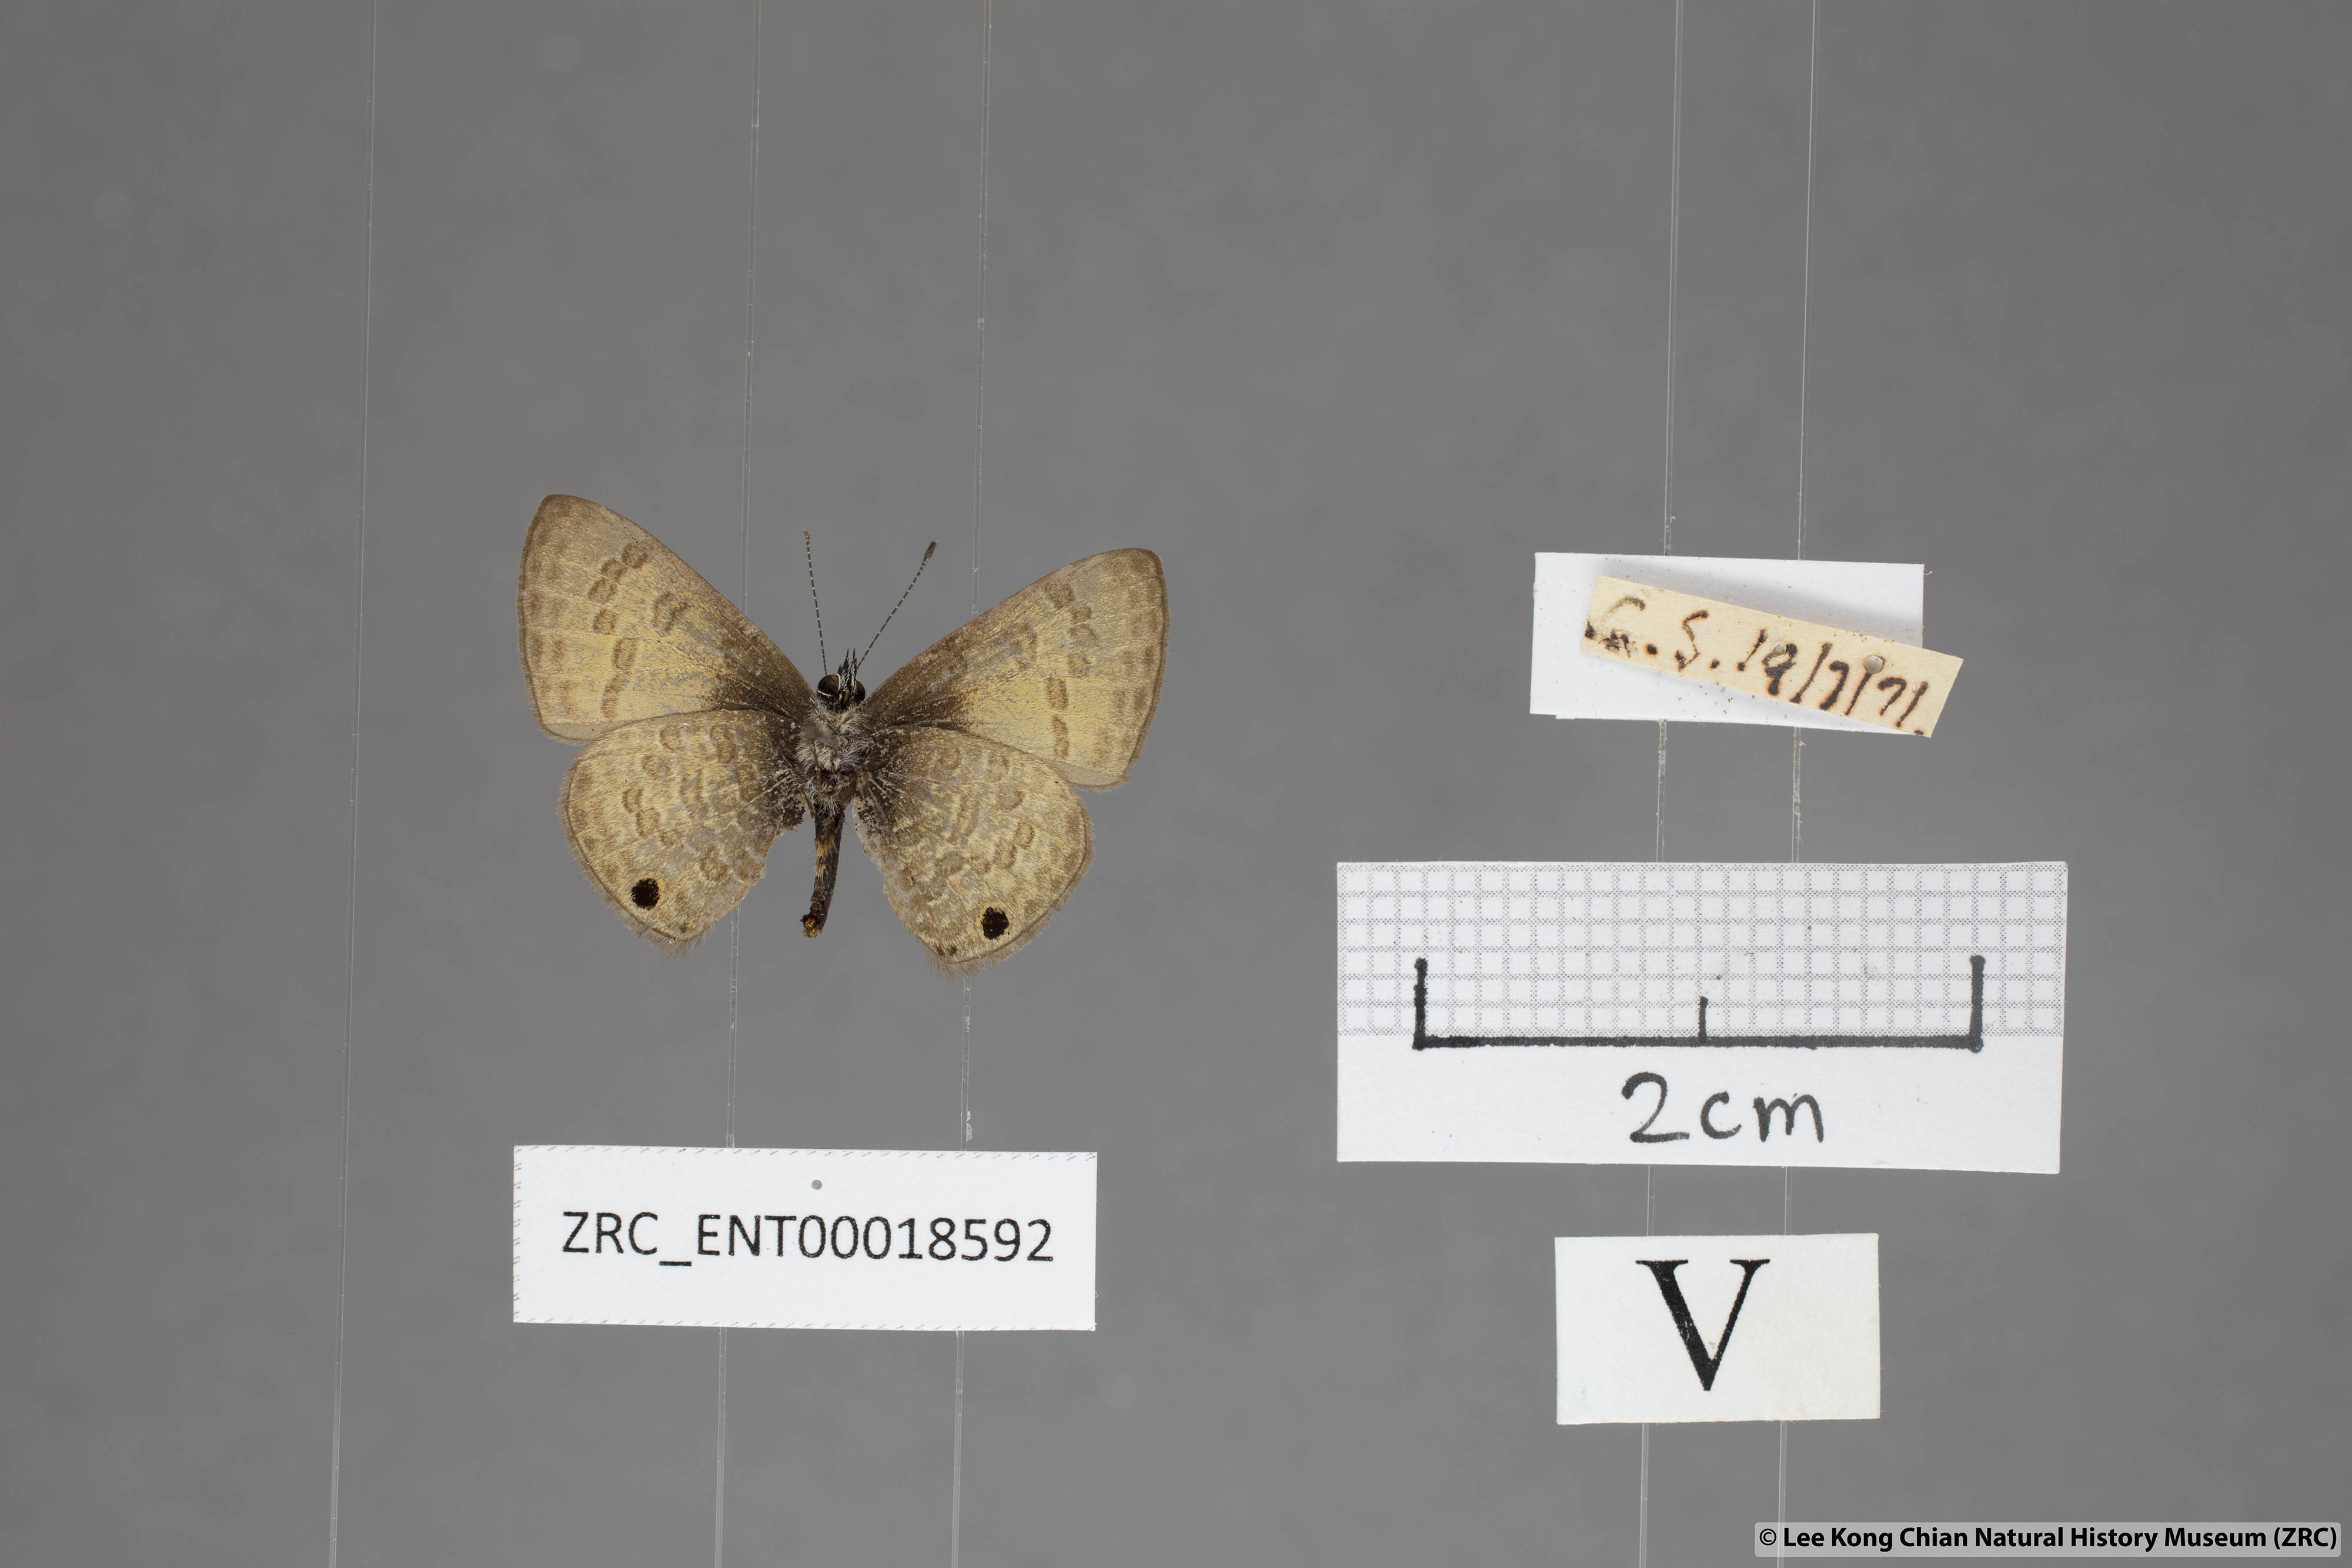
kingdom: Animalia
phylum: Arthropoda
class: Insecta
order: Lepidoptera
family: Lycaenidae
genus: Prosotas
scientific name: Prosotas gracilis
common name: Dark-based lineblue
